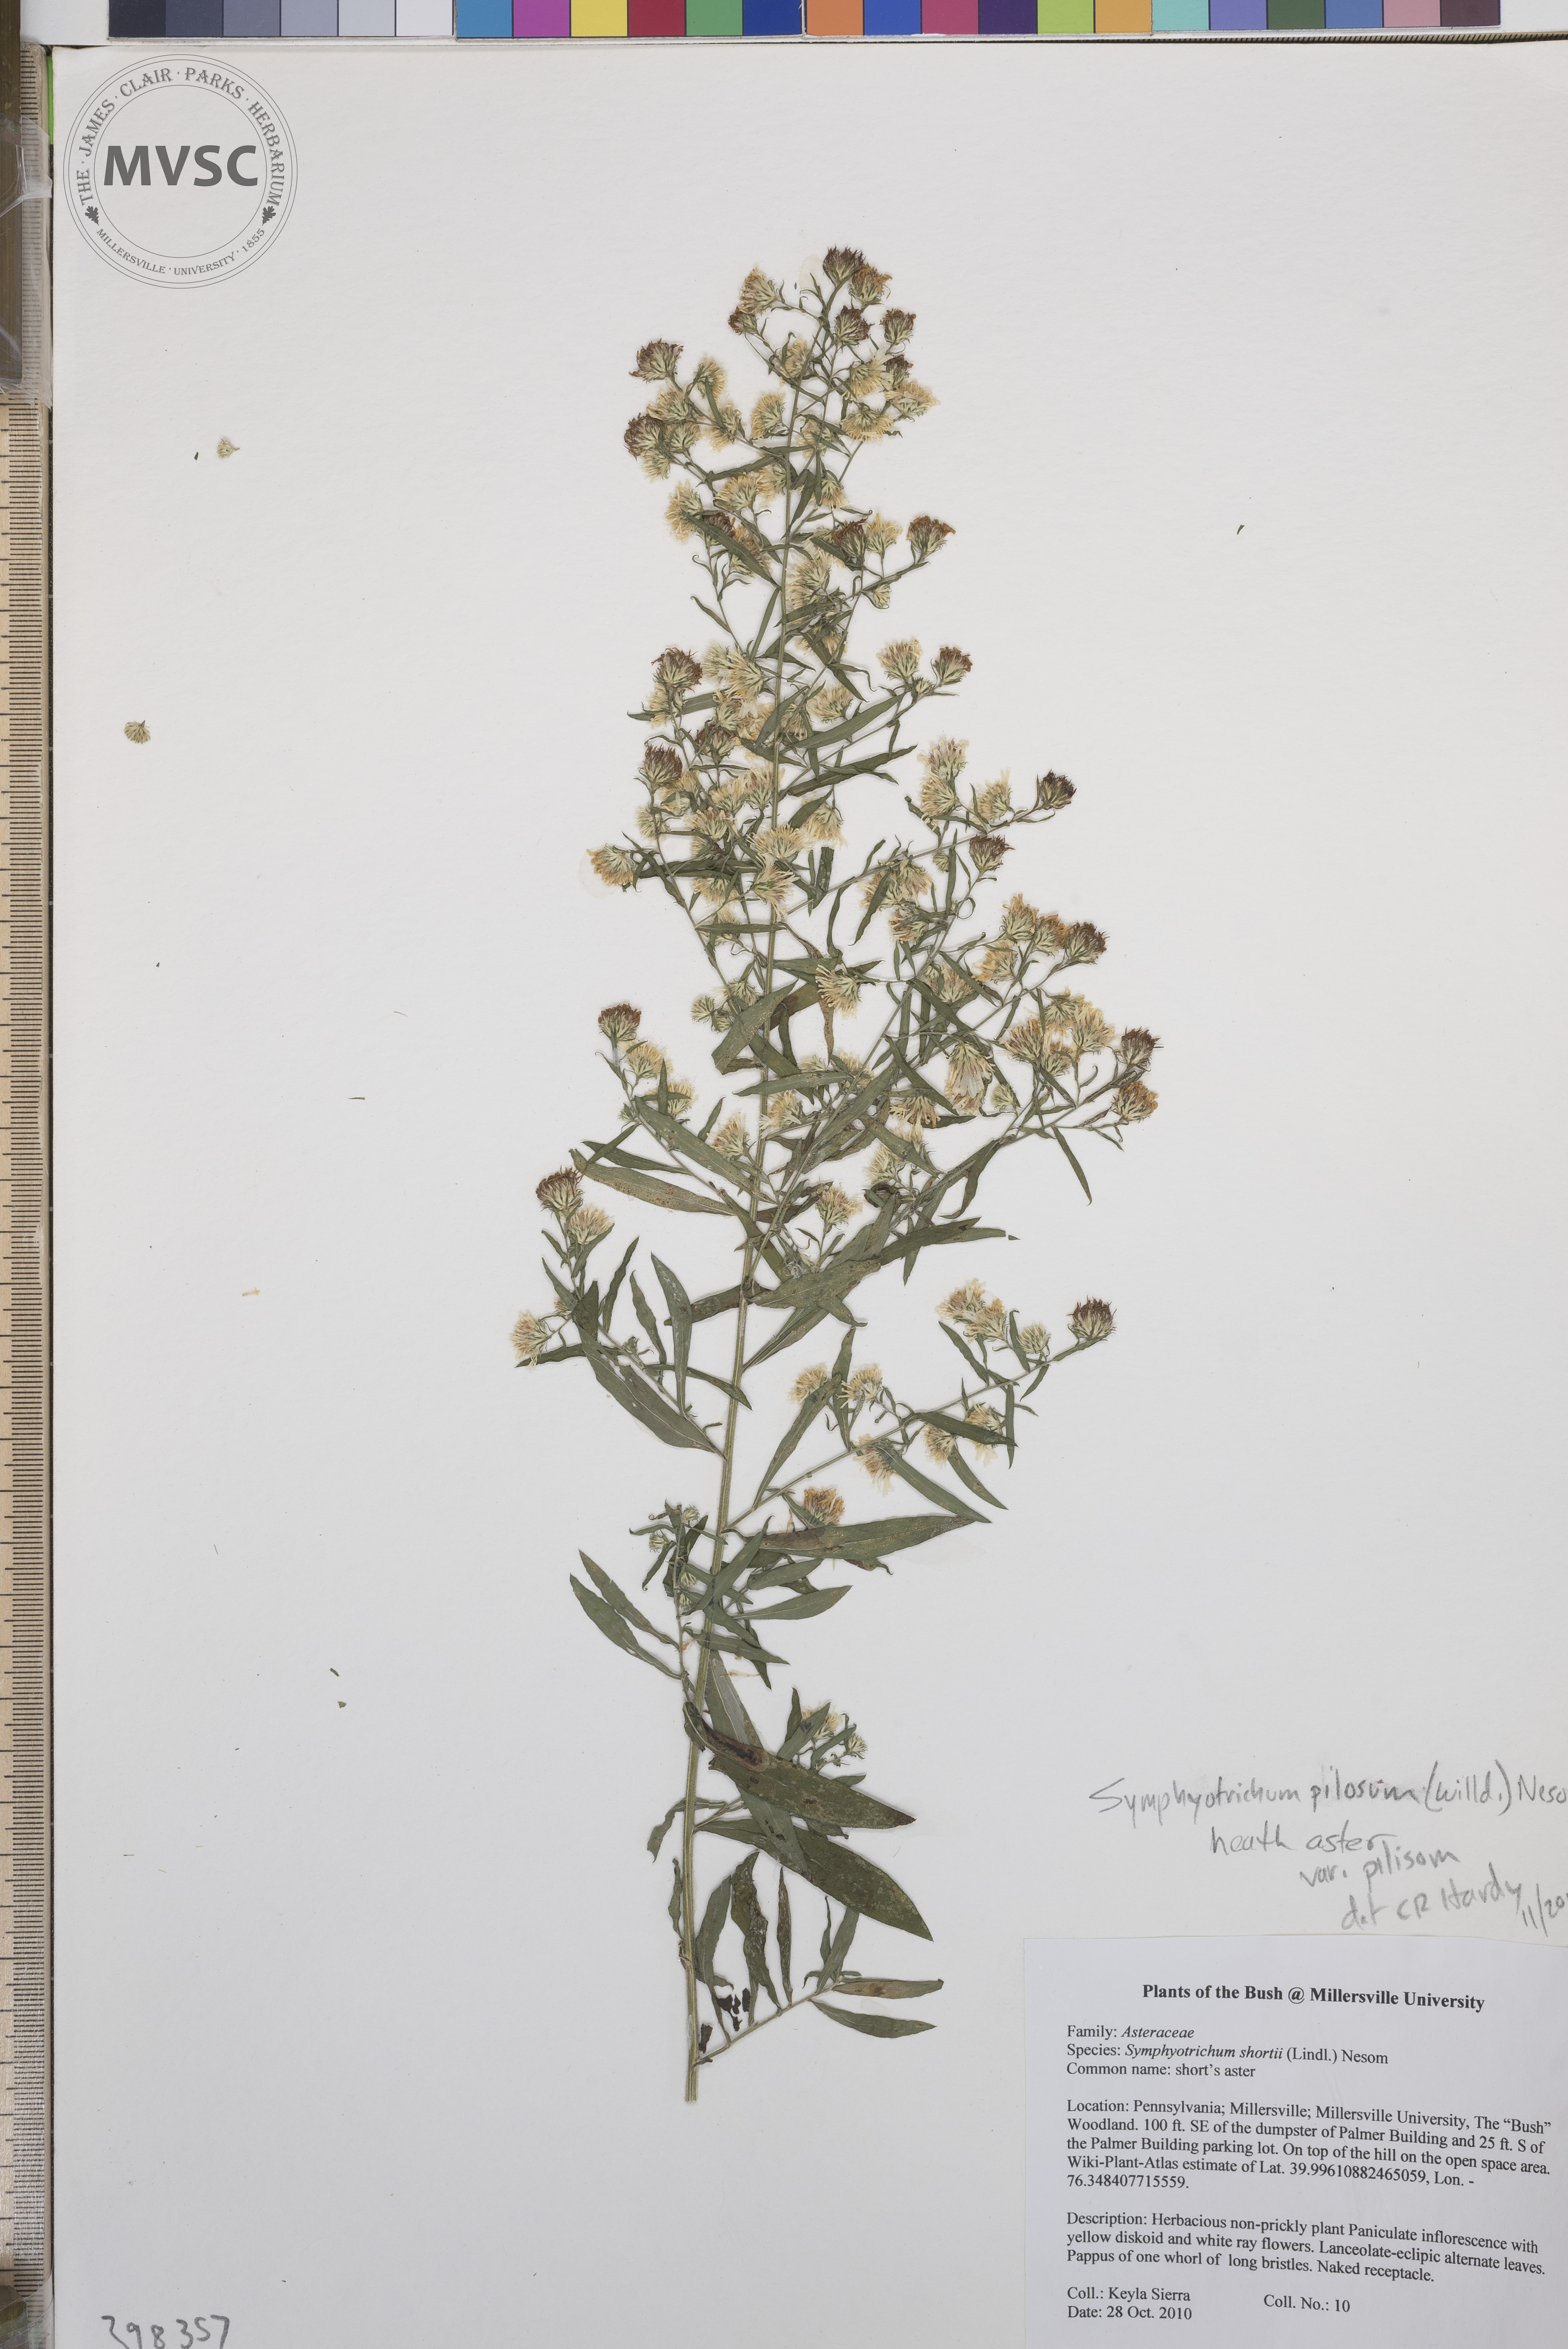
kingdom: Plantae
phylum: Tracheophyta
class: Magnoliopsida
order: Asterales
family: Asteraceae
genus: Symphyotrichum
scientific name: Symphyotrichum pilosum
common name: Late purple aster
